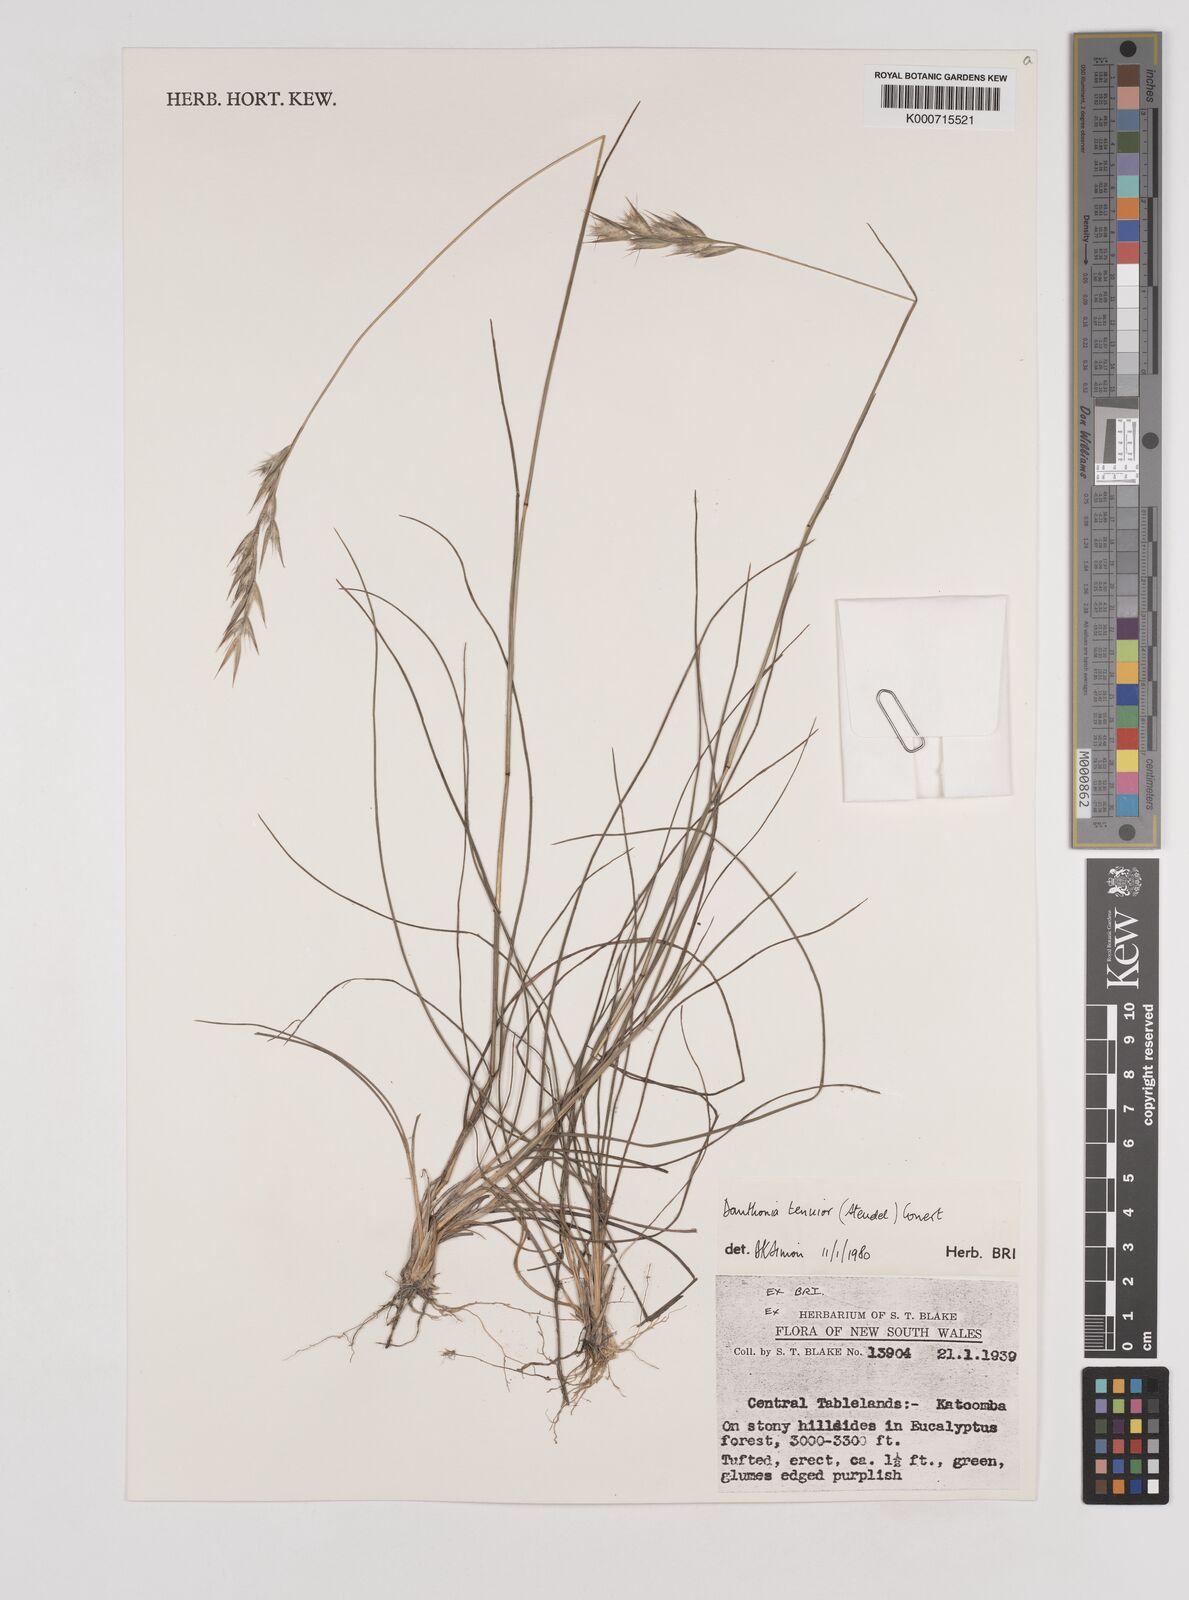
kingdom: Plantae
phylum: Tracheophyta
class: Liliopsida
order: Poales
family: Poaceae
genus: Rytidosperma
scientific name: Rytidosperma tenuius
